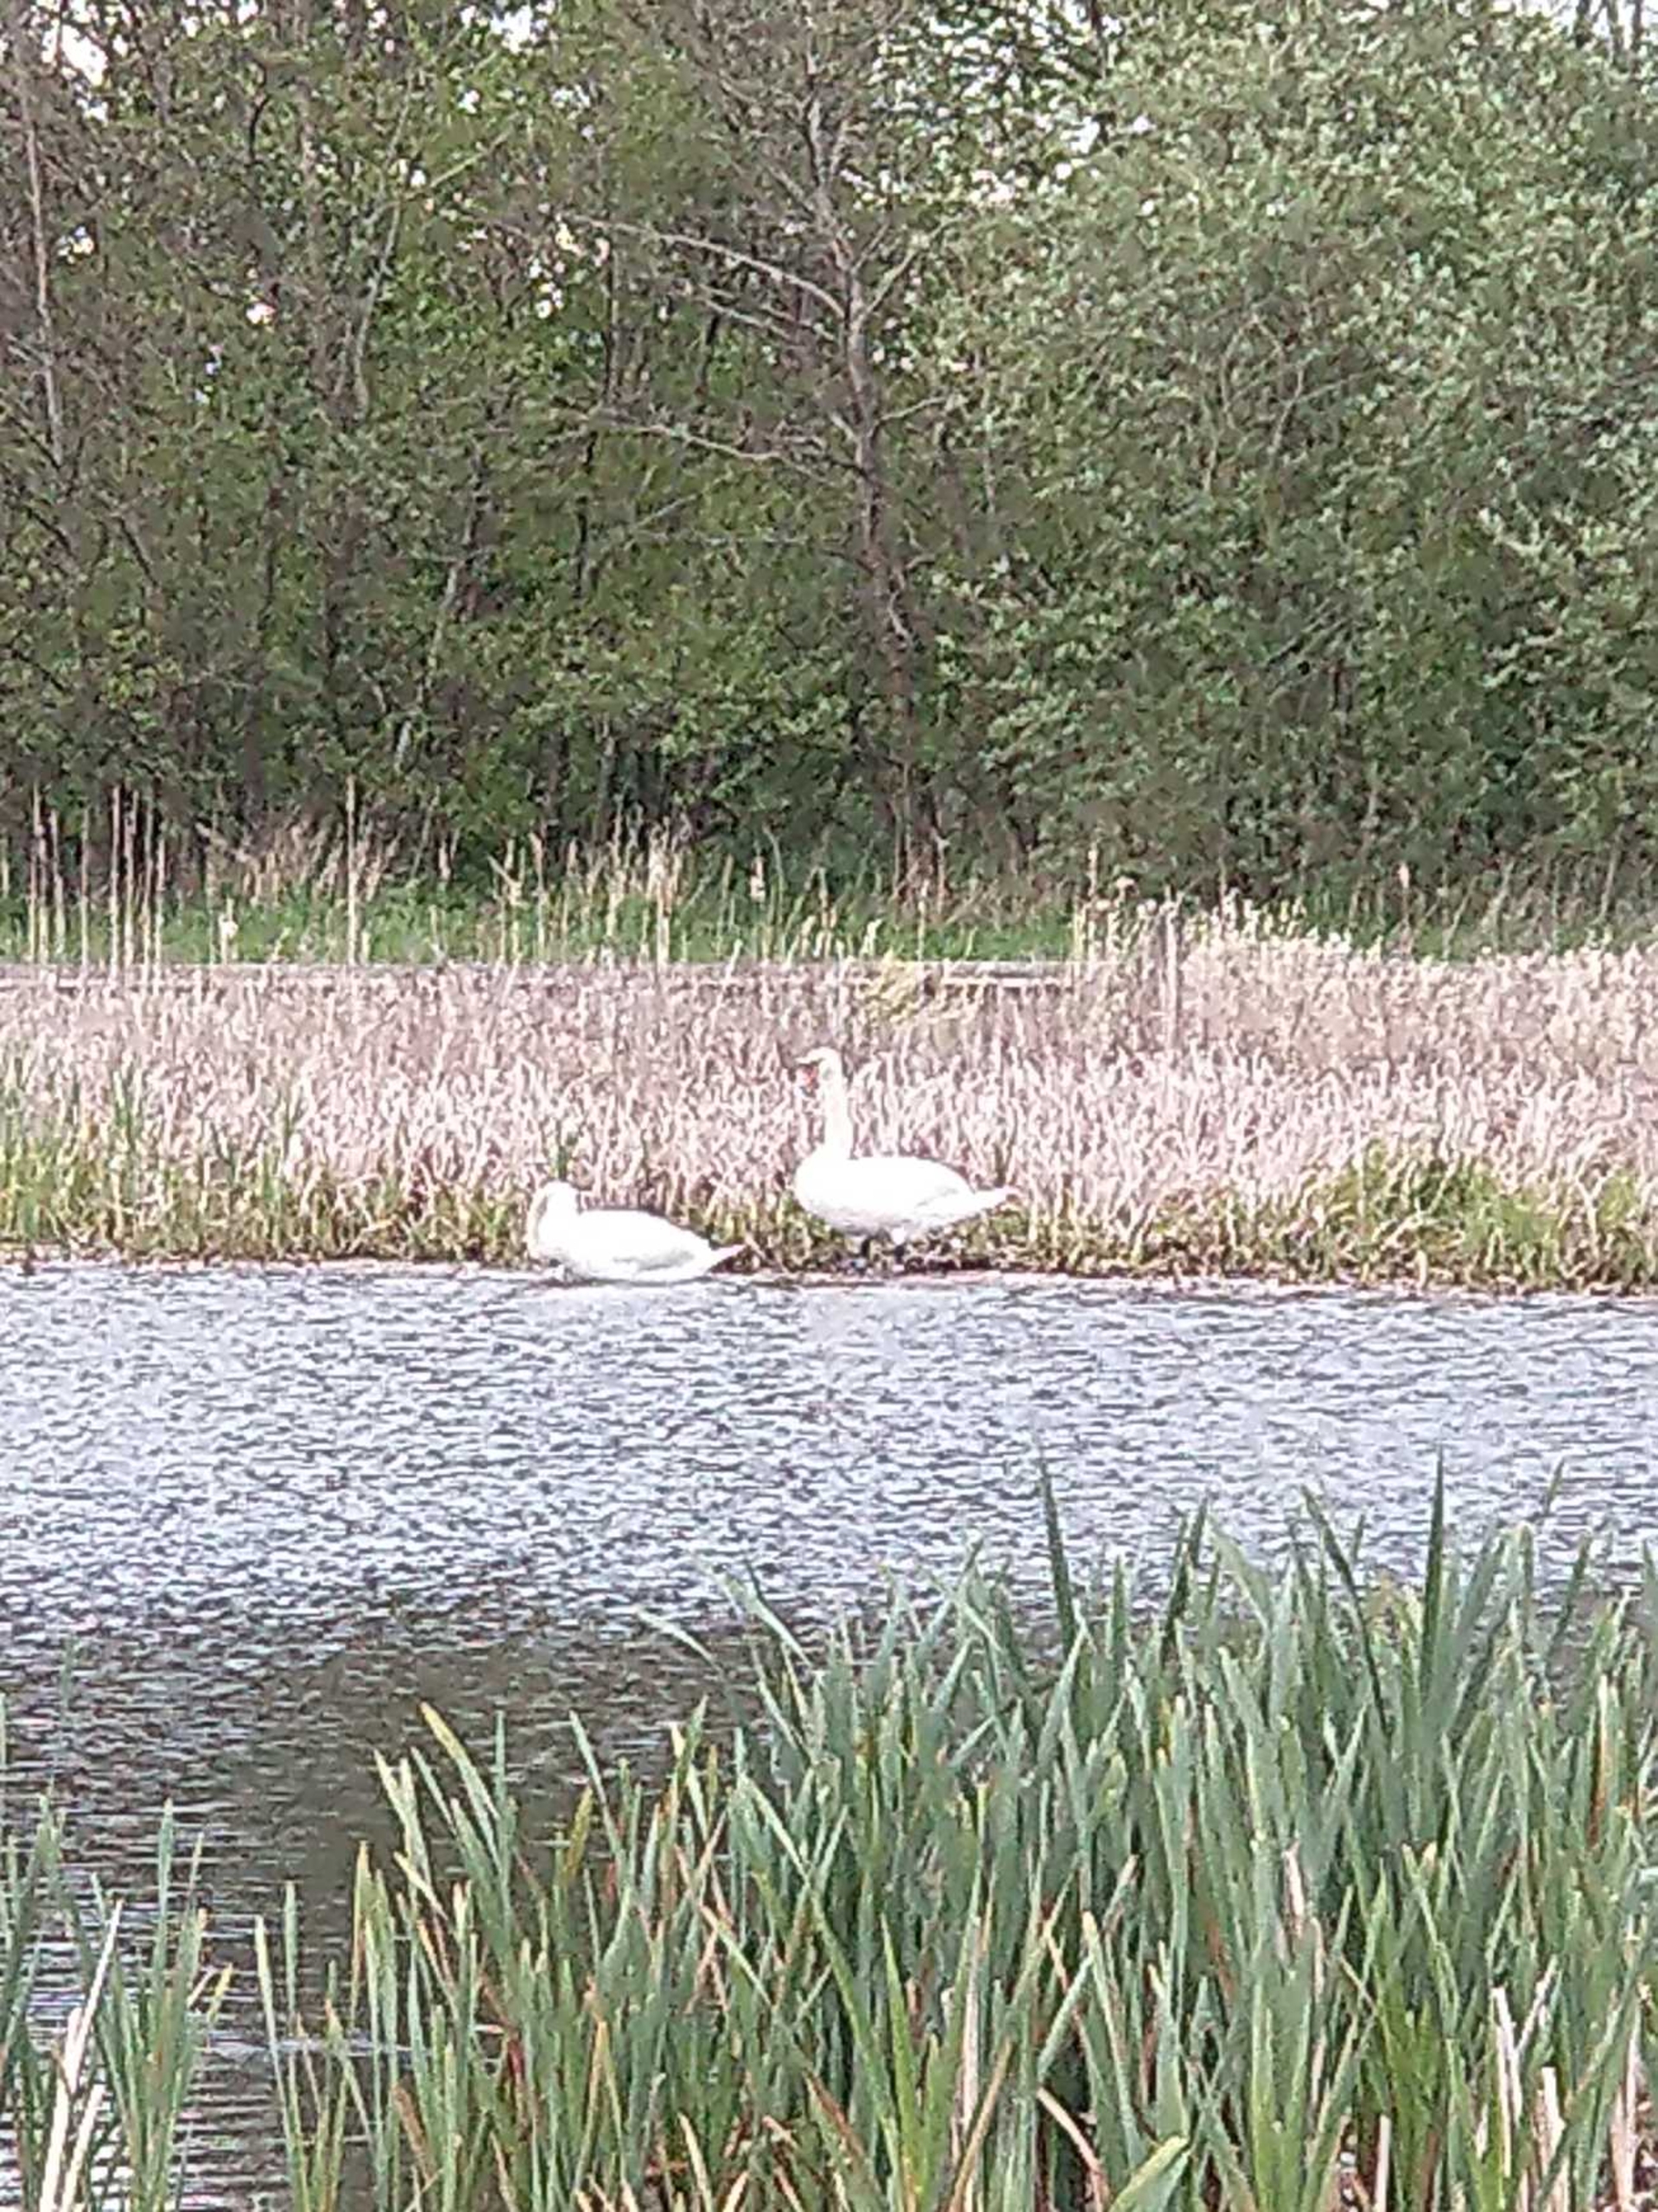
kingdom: Animalia
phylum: Chordata
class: Aves
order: Anseriformes
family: Anatidae
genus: Cygnus
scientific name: Cygnus olor
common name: Knopsvane
